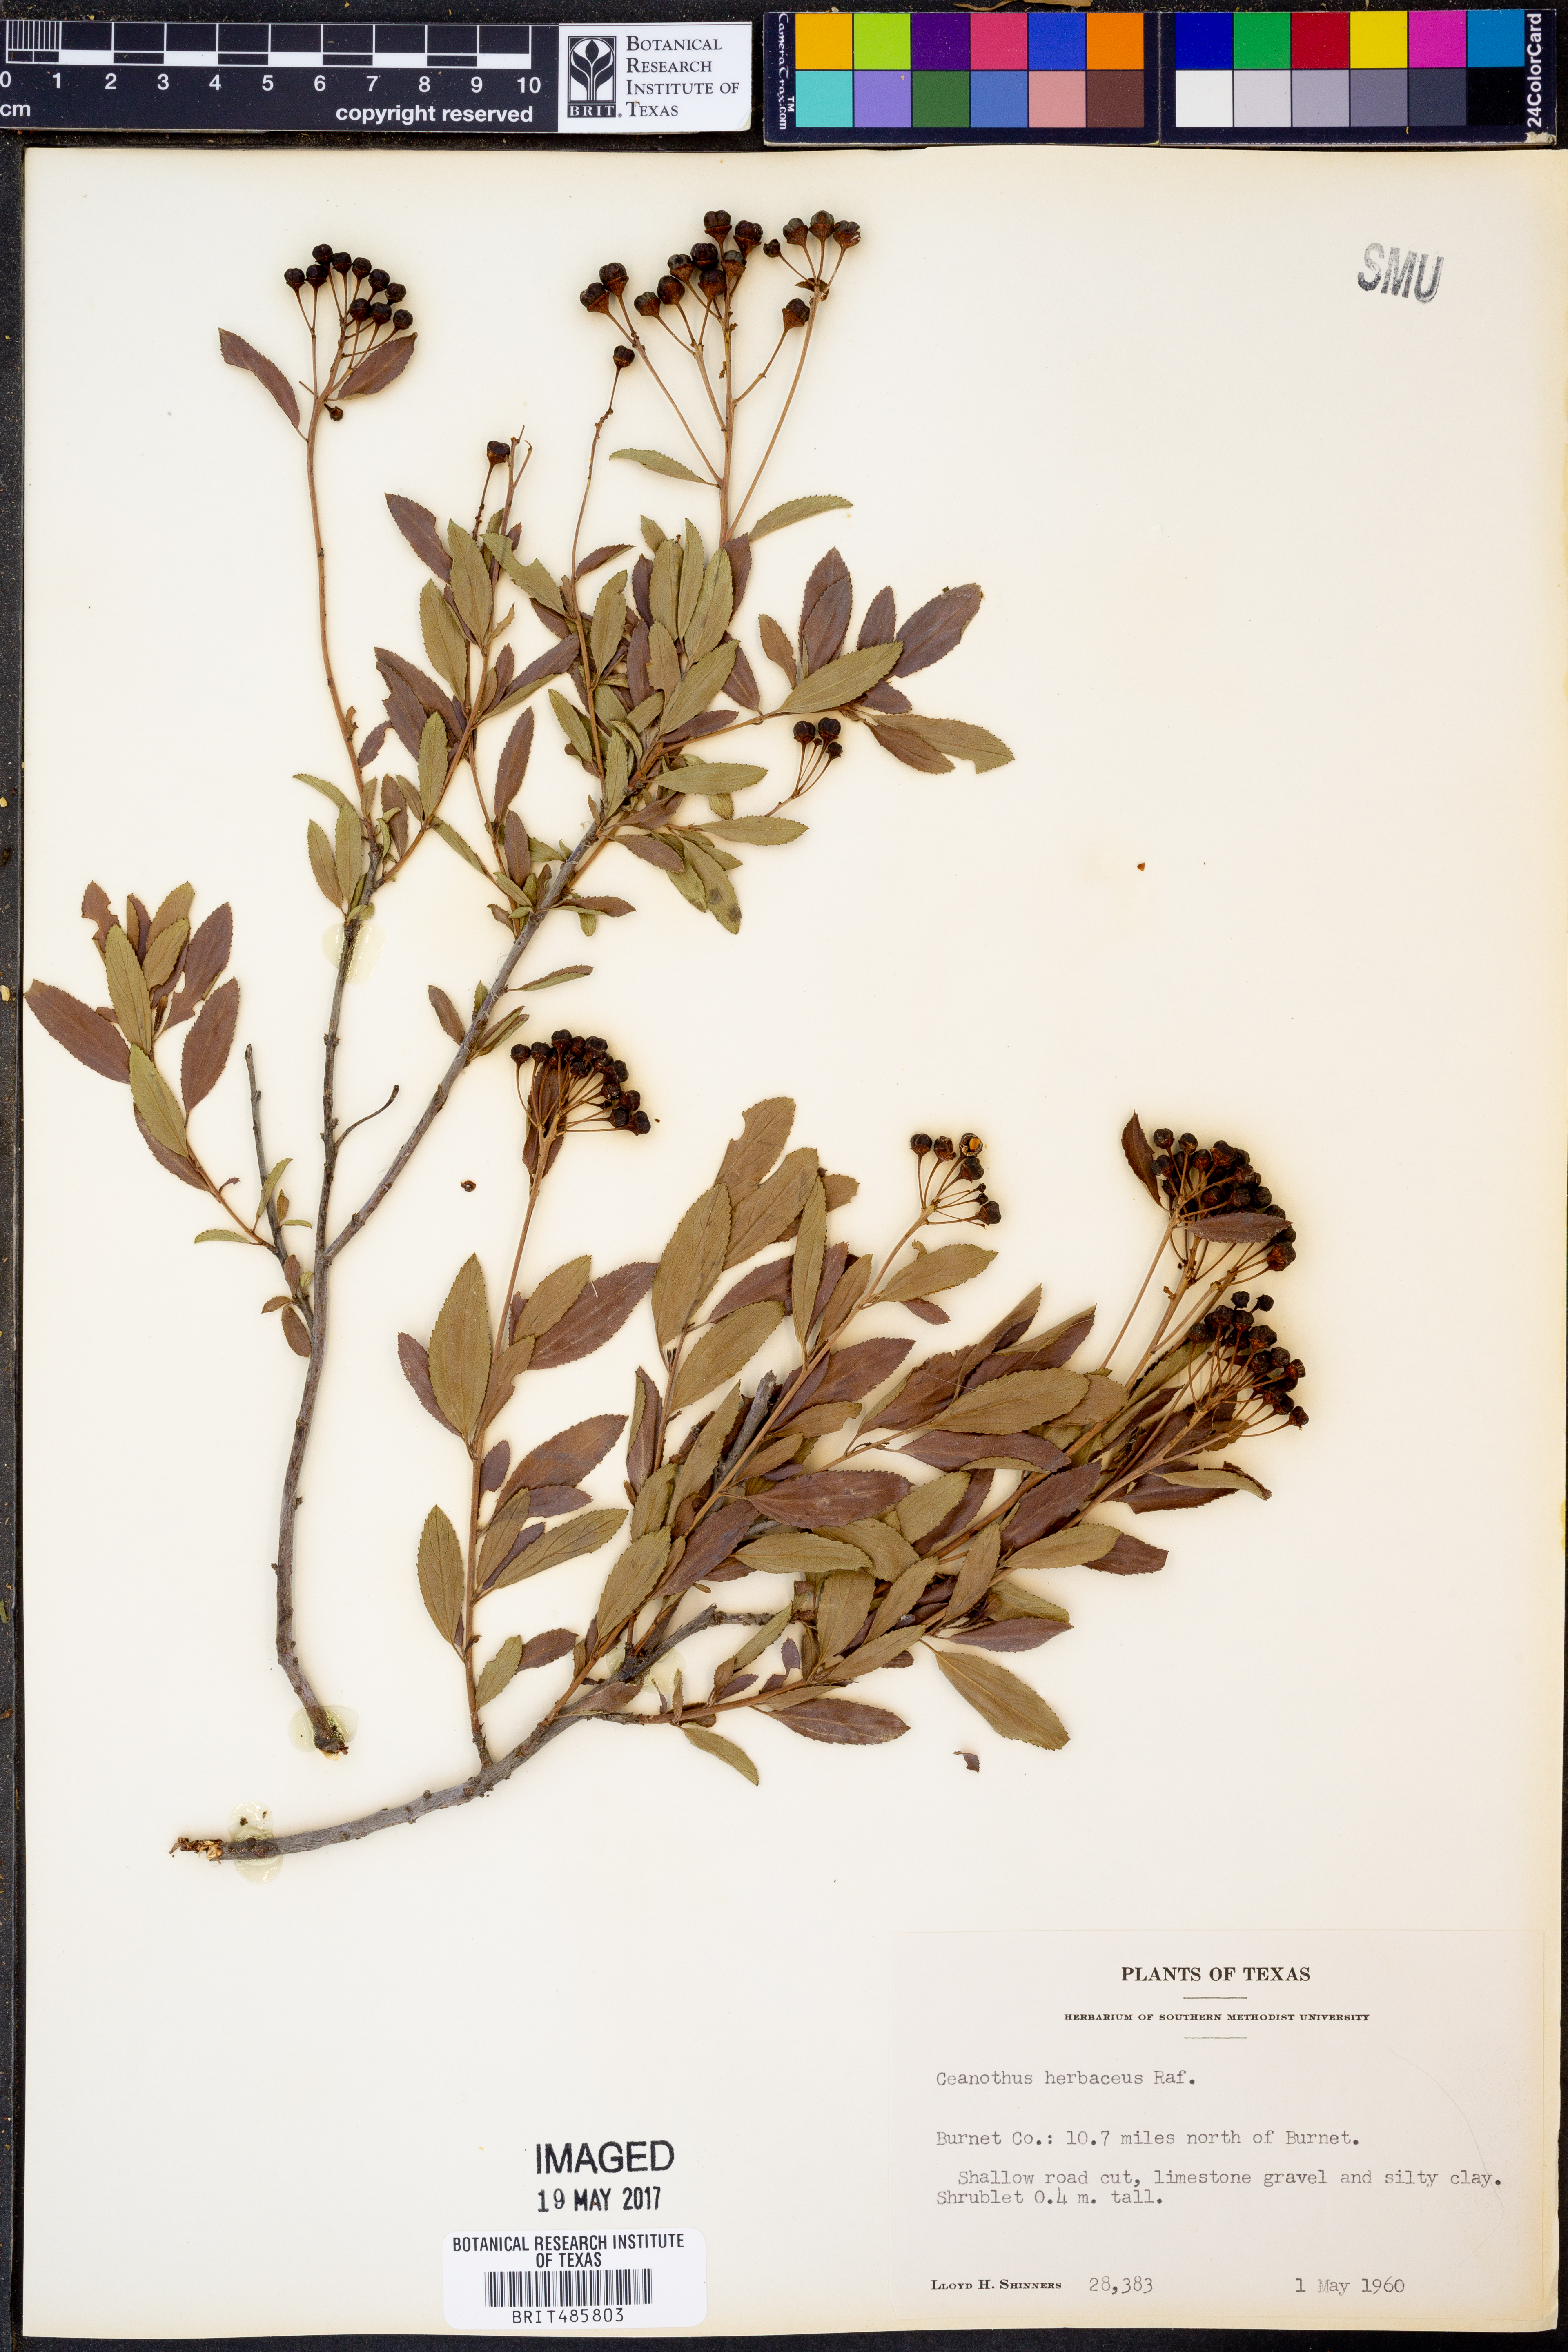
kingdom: Plantae
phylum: Tracheophyta
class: Magnoliopsida
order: Rosales
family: Rhamnaceae
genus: Ceanothus
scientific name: Ceanothus herbaceus
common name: Inland ceanothus
